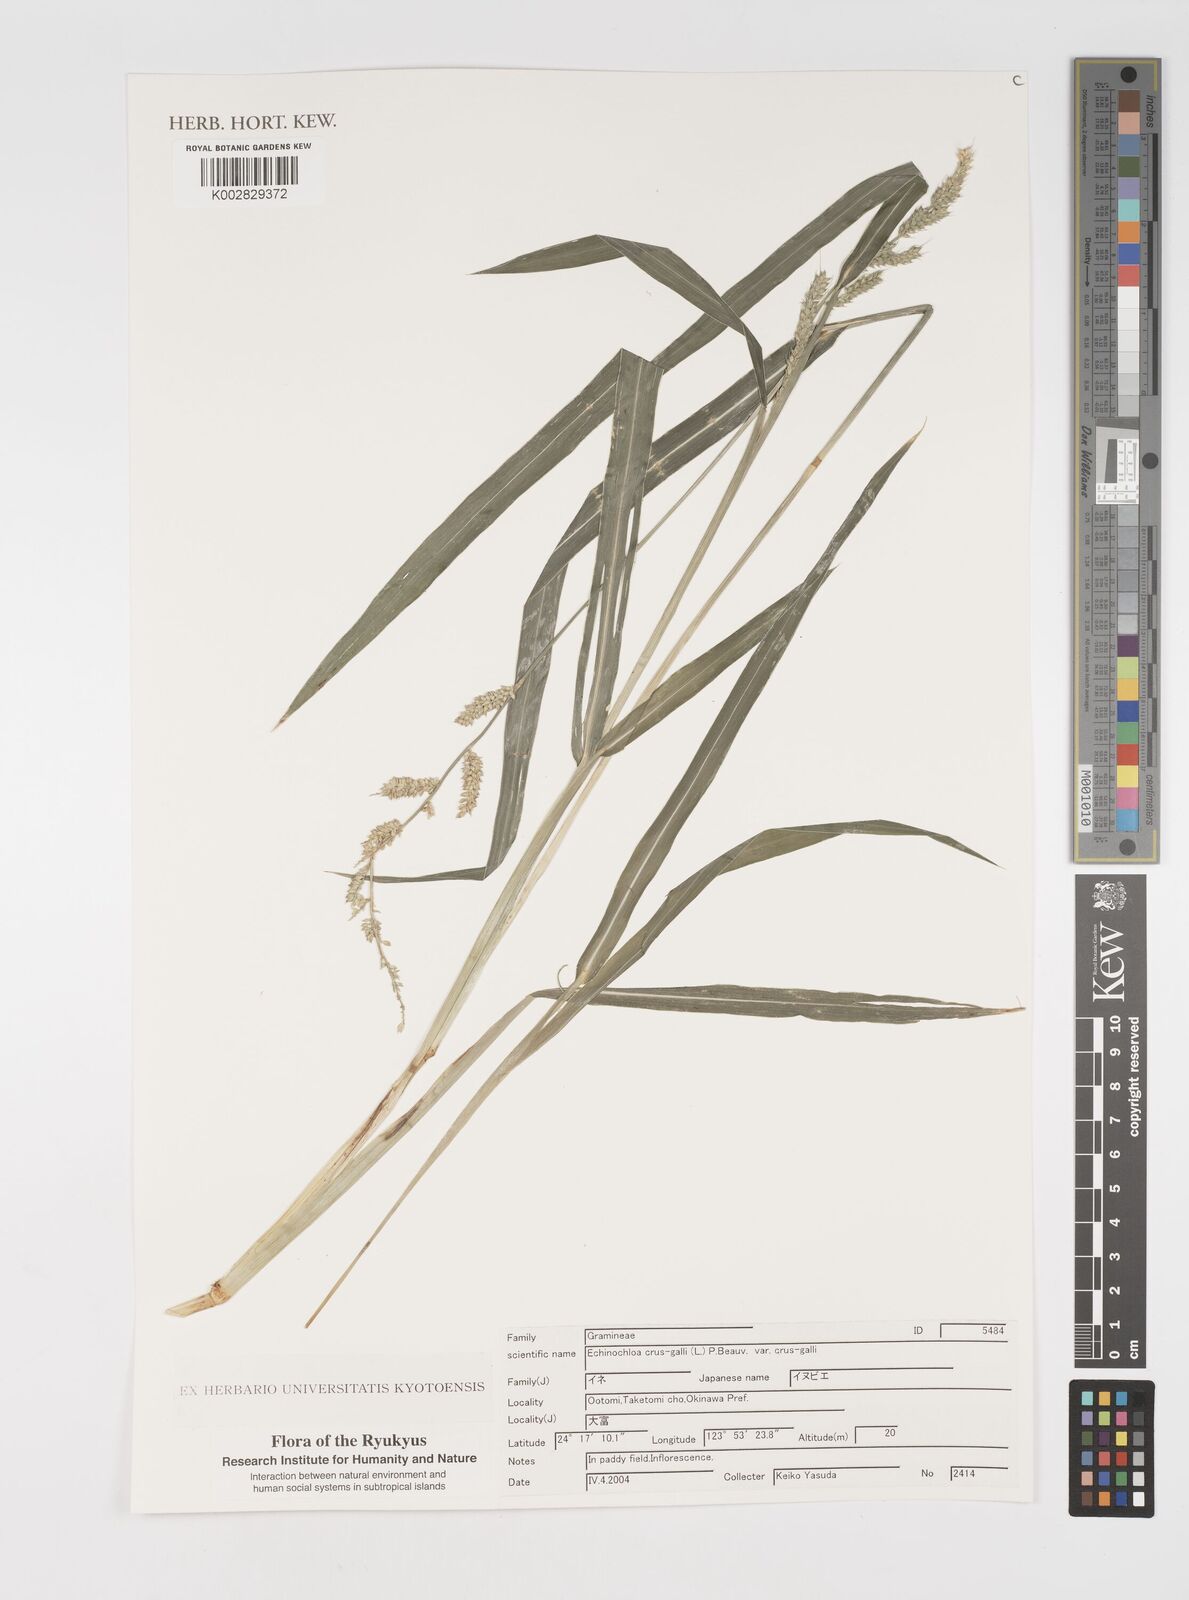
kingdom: Plantae
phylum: Tracheophyta
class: Liliopsida
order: Poales
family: Poaceae
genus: Echinochloa
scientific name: Echinochloa crus-galli
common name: Cockspur
